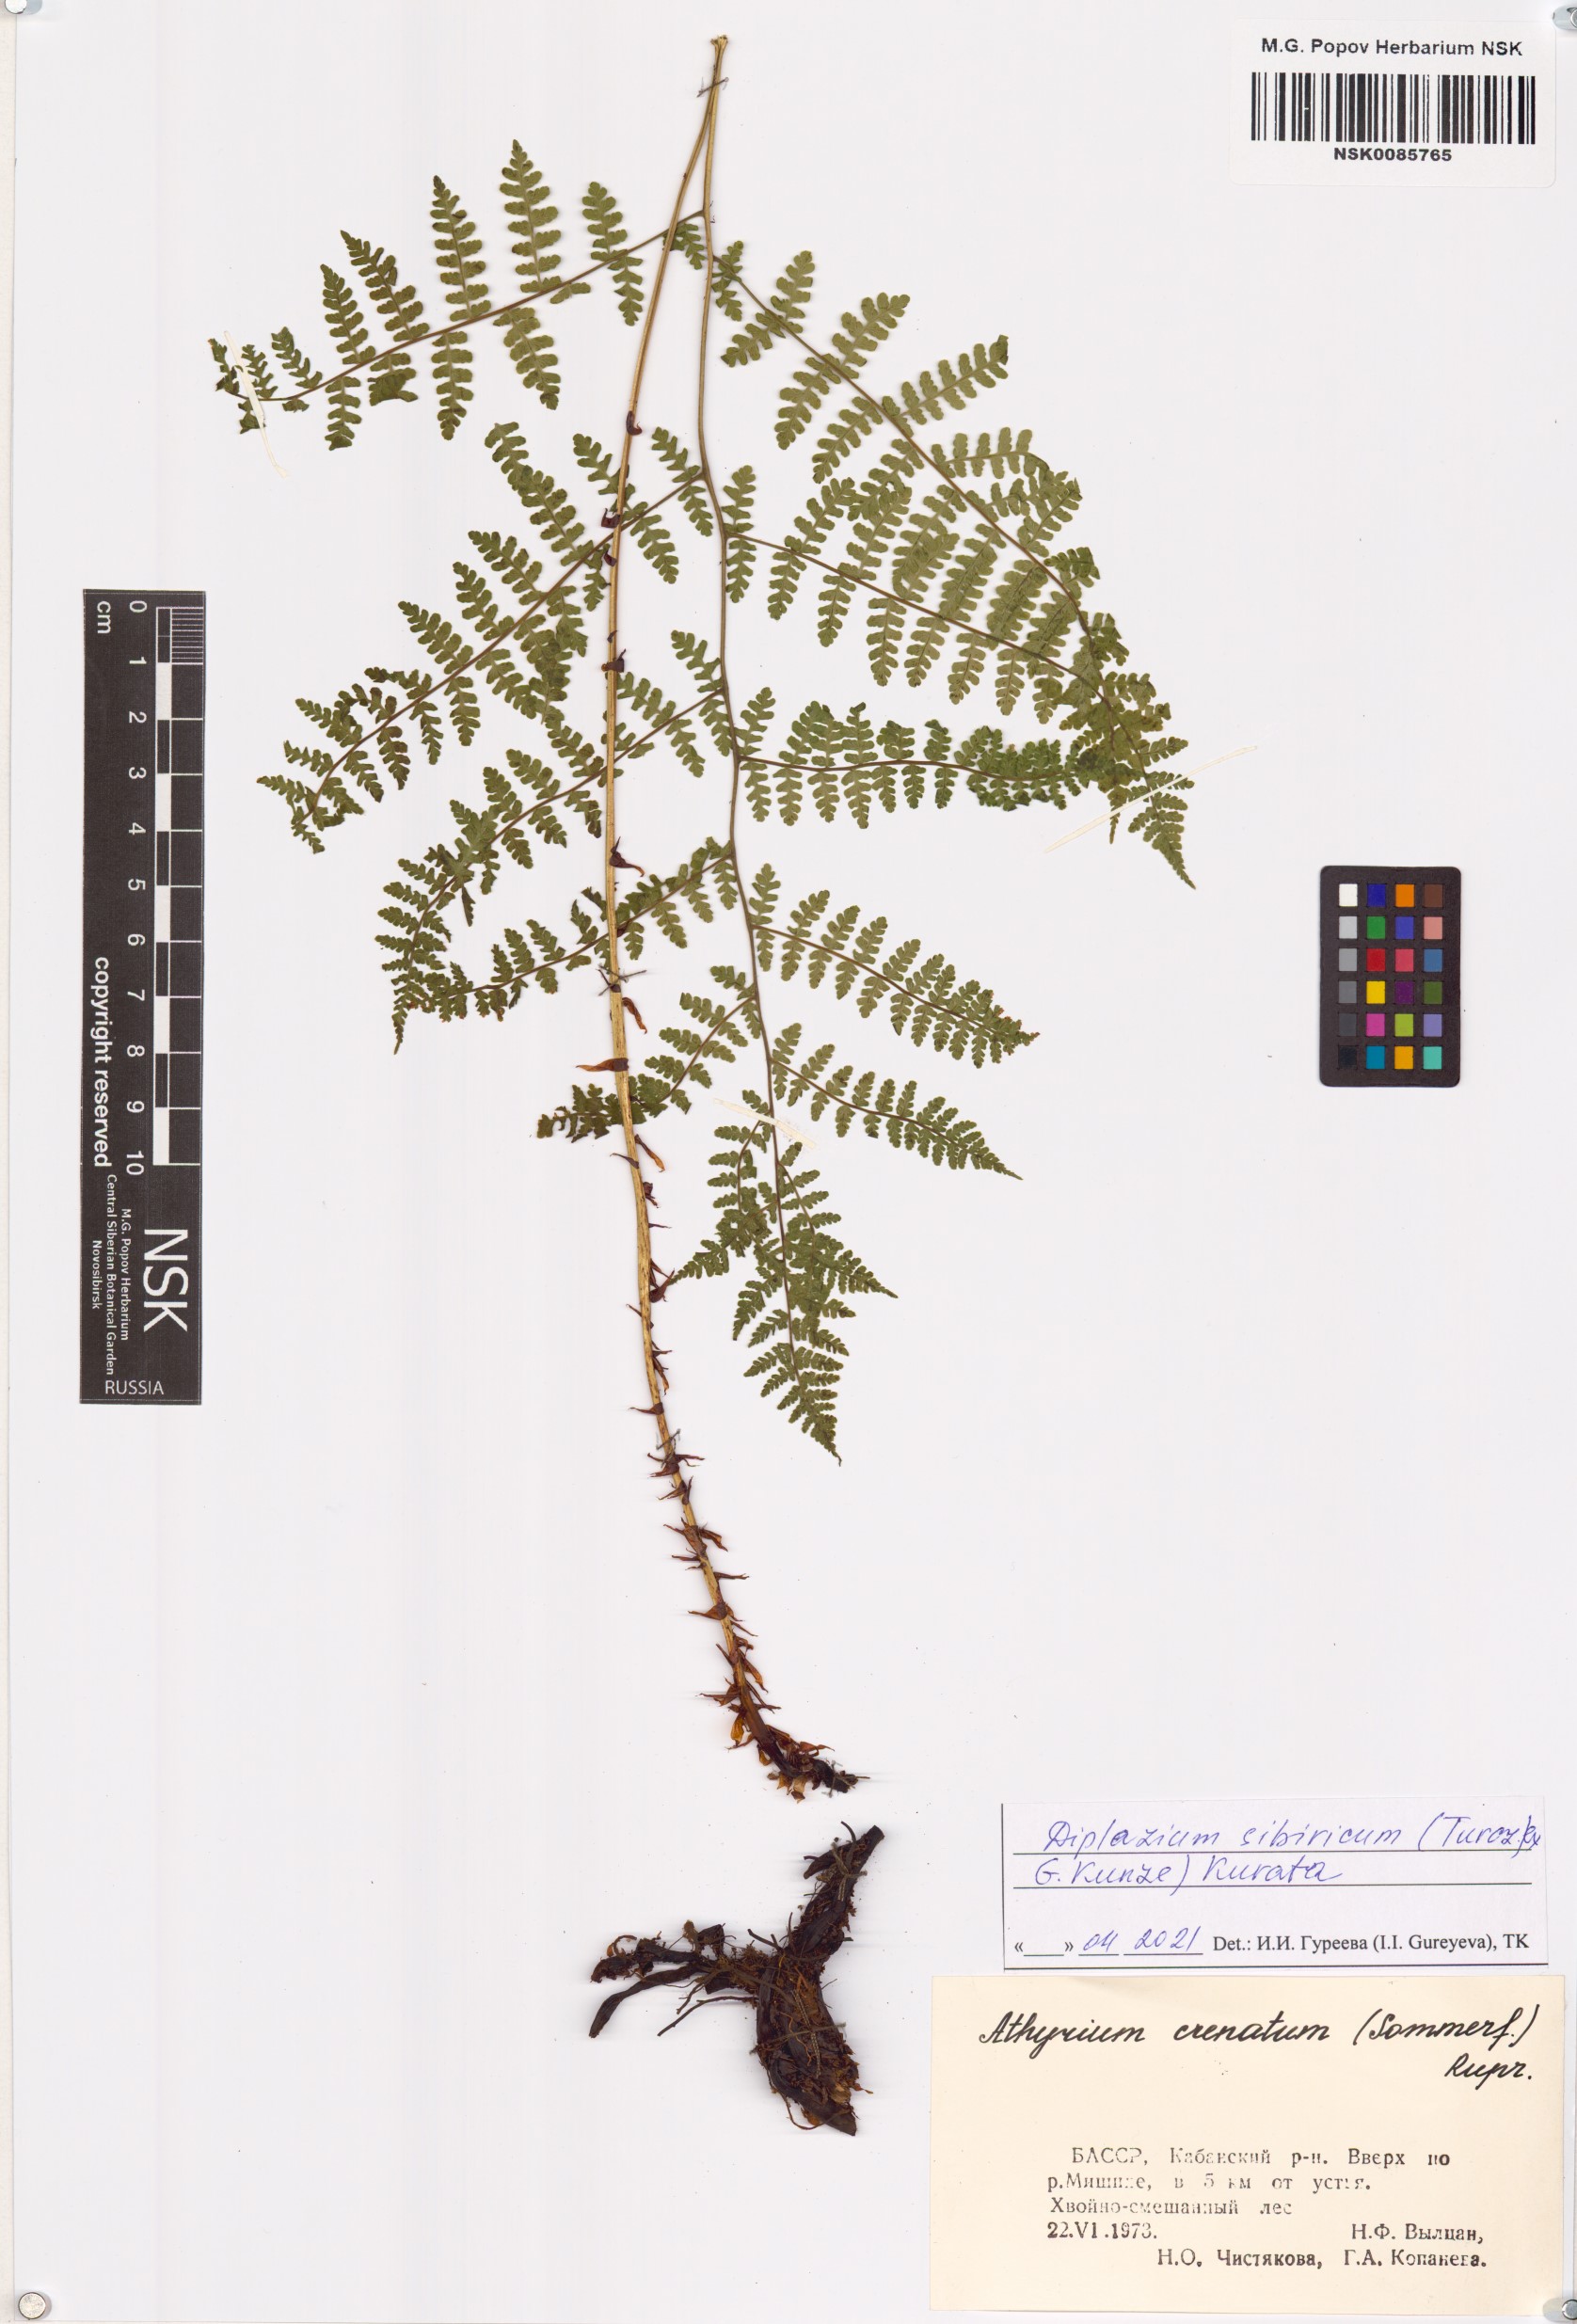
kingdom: Plantae
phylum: Tracheophyta
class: Polypodiopsida
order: Polypodiales
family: Athyriaceae
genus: Diplazium
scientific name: Diplazium sibiricum
